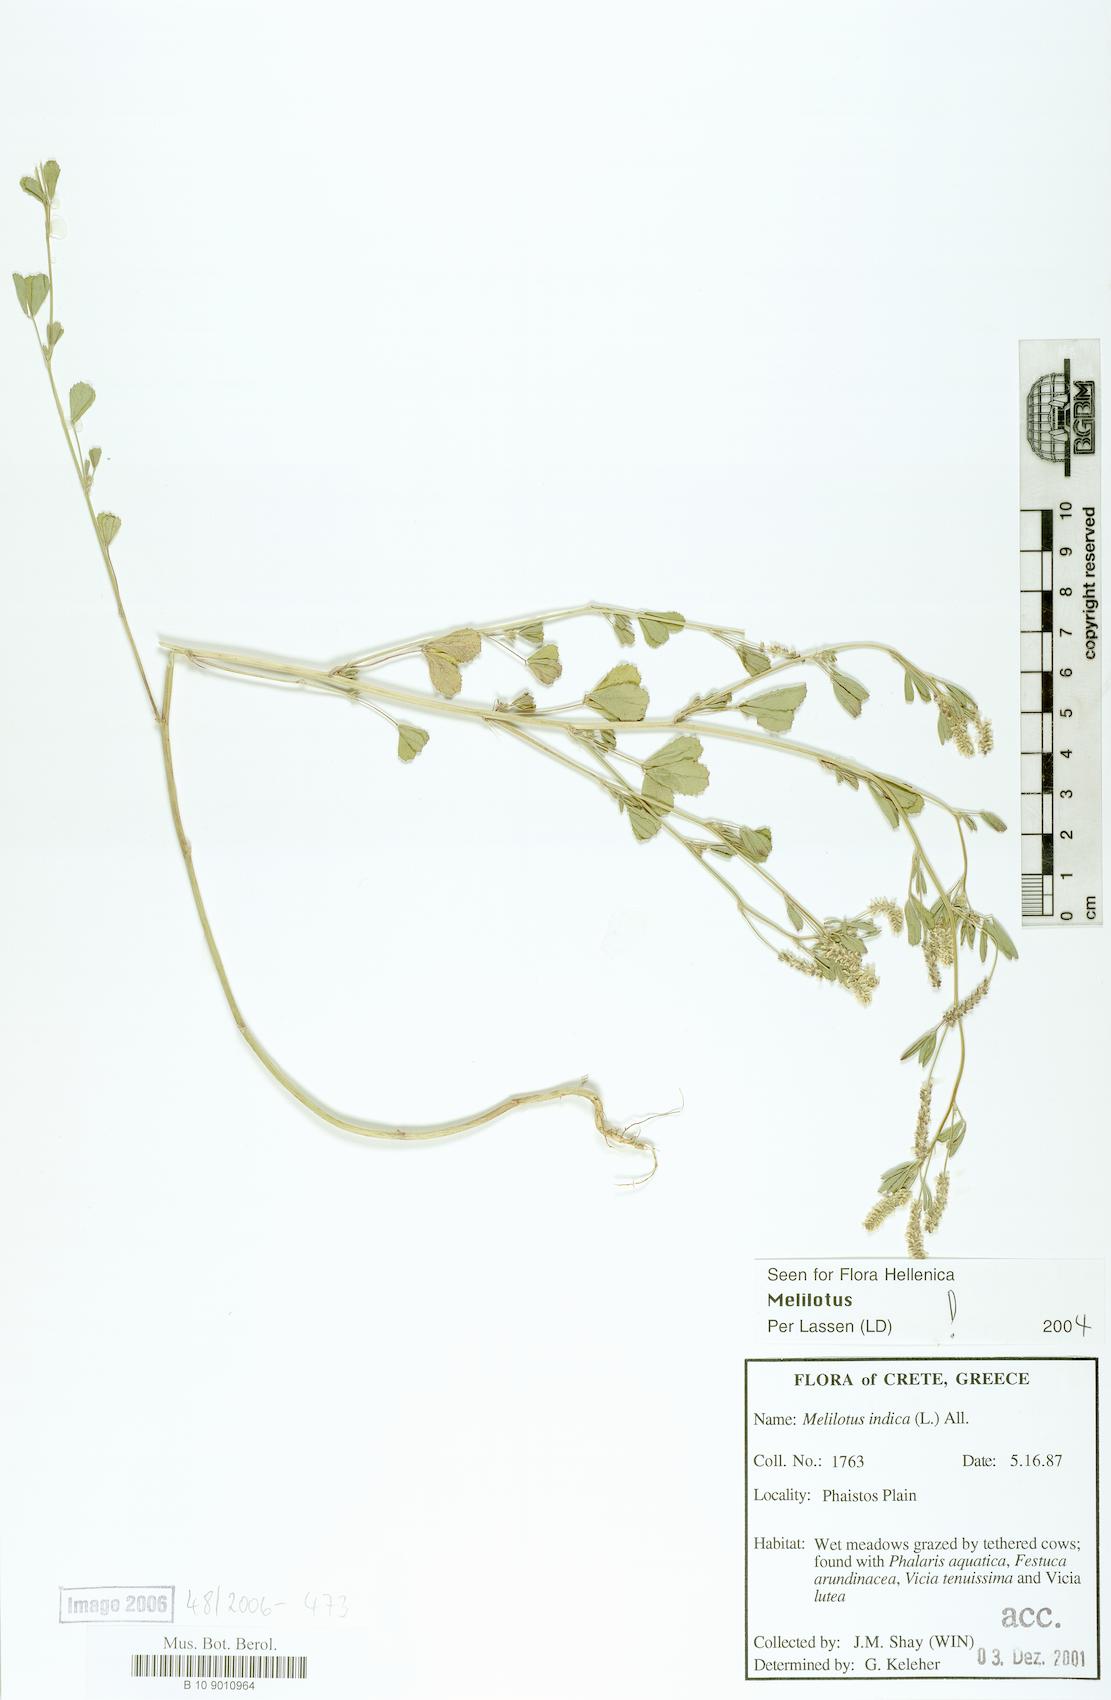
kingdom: Plantae
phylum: Tracheophyta
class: Magnoliopsida
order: Fabales
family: Fabaceae
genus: Melilotus
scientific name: Melilotus indicus
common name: Small melilot
